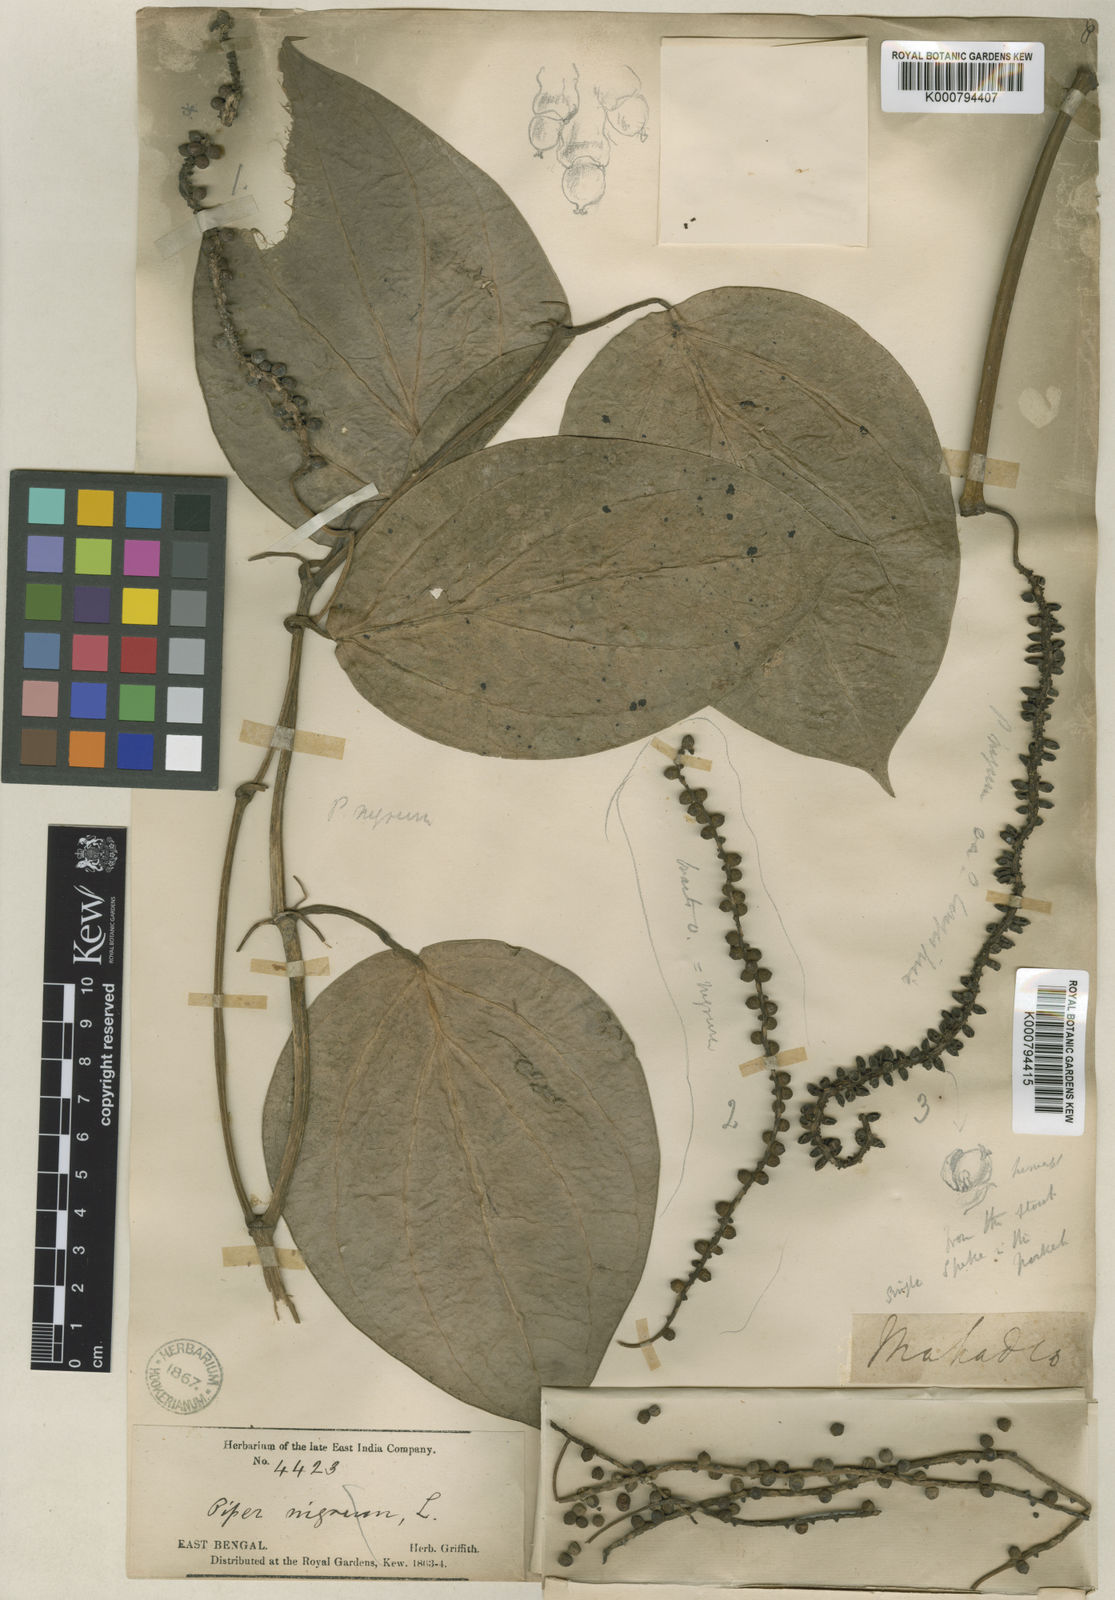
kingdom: Plantae
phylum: Tracheophyta
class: Magnoliopsida
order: Piperales
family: Piperaceae
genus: Piper
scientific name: Piper leptostachyum
